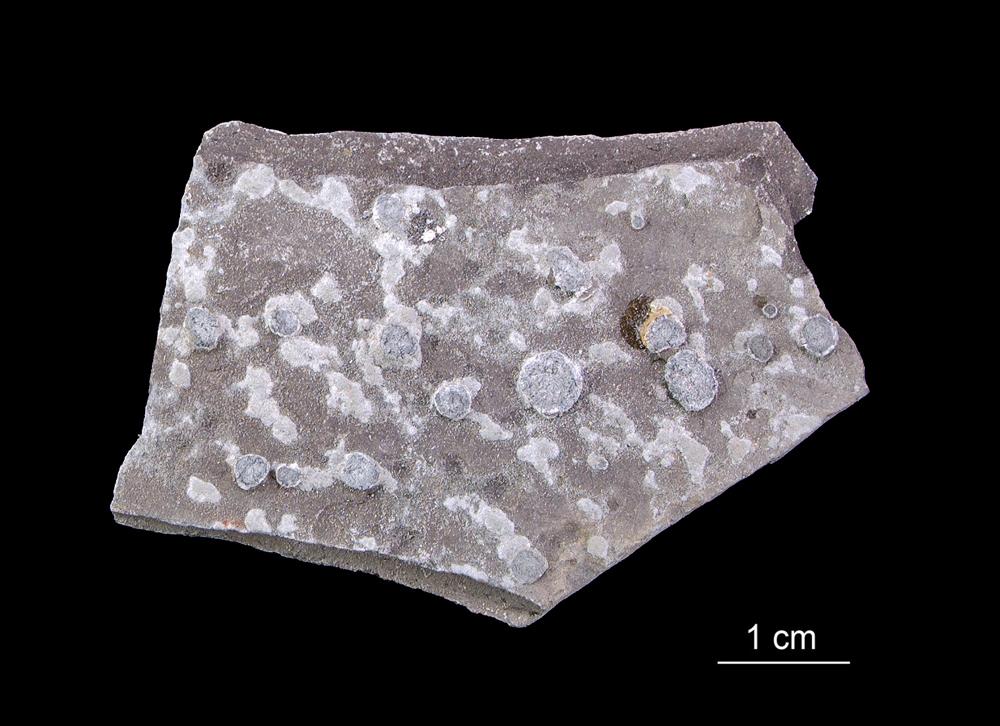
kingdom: Animalia
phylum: Hemichordata
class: Pterobranchia
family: Anisograptidae
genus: Rhabdinopora
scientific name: Rhabdinopora Gorgonia flabelliformis
